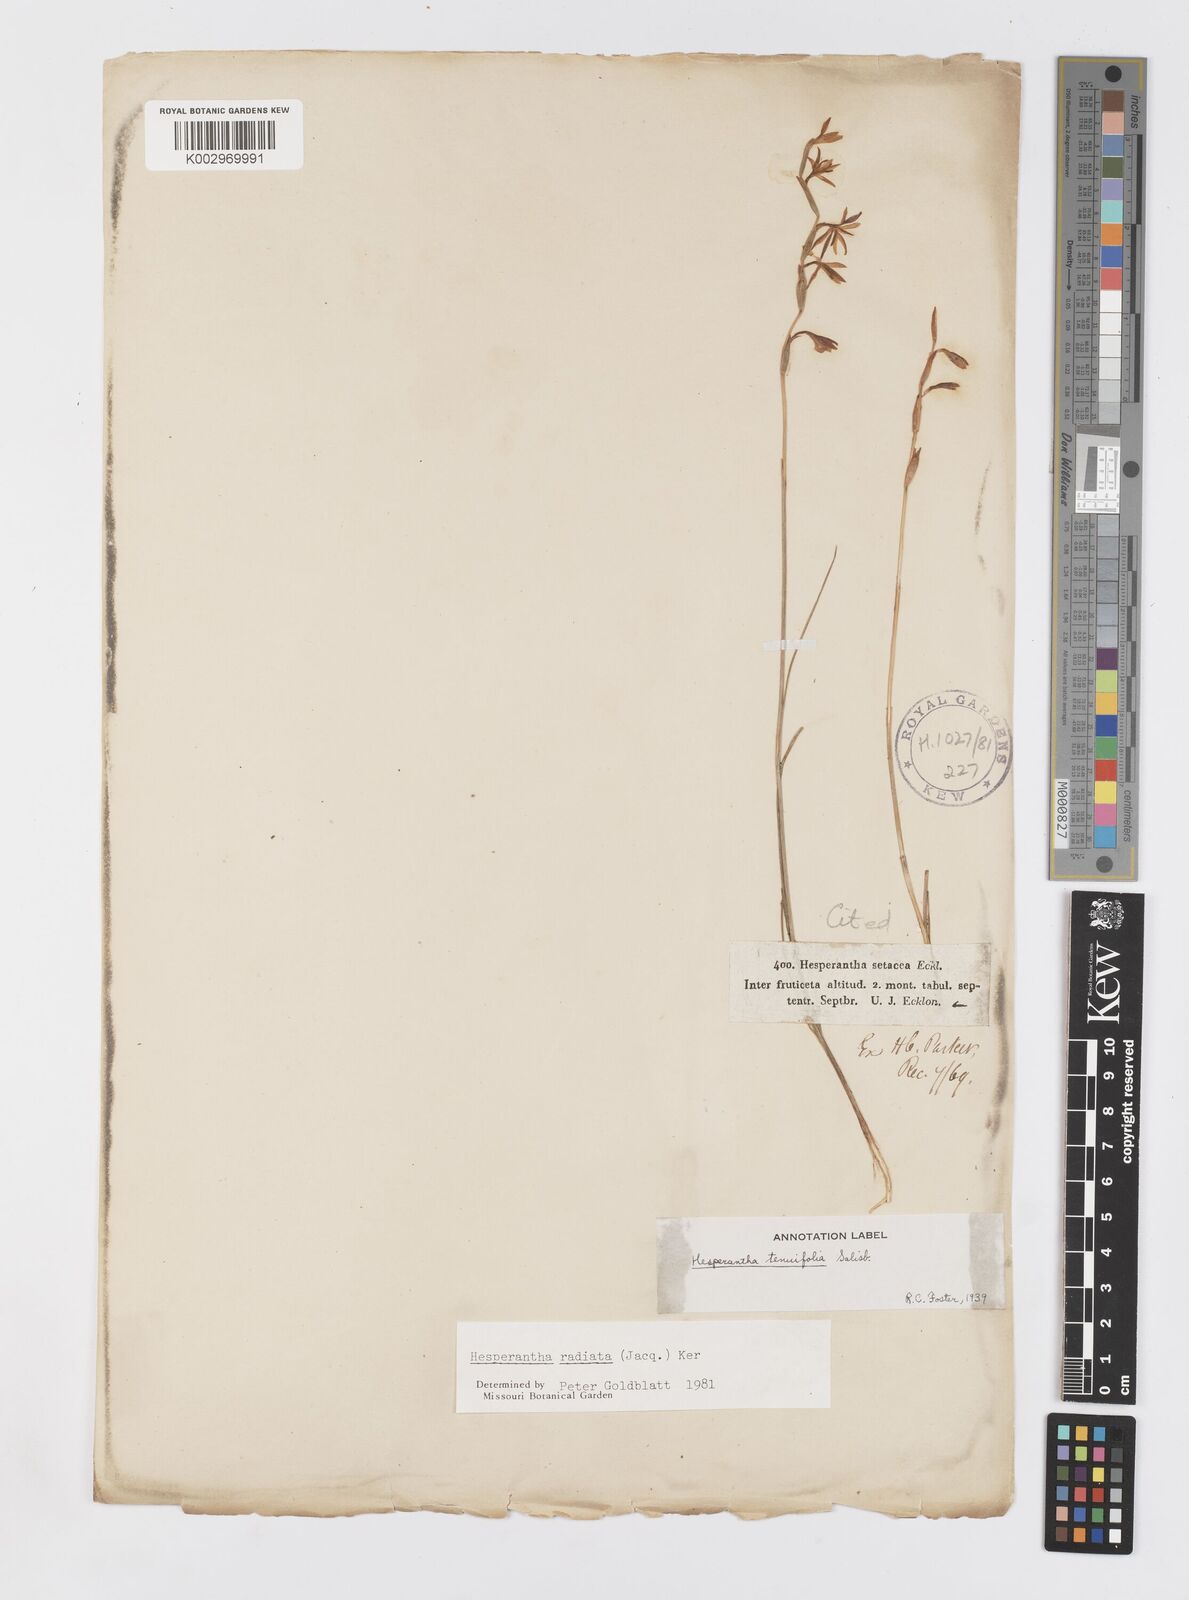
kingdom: Plantae
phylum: Tracheophyta
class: Liliopsida
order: Asparagales
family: Iridaceae
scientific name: Iridaceae
